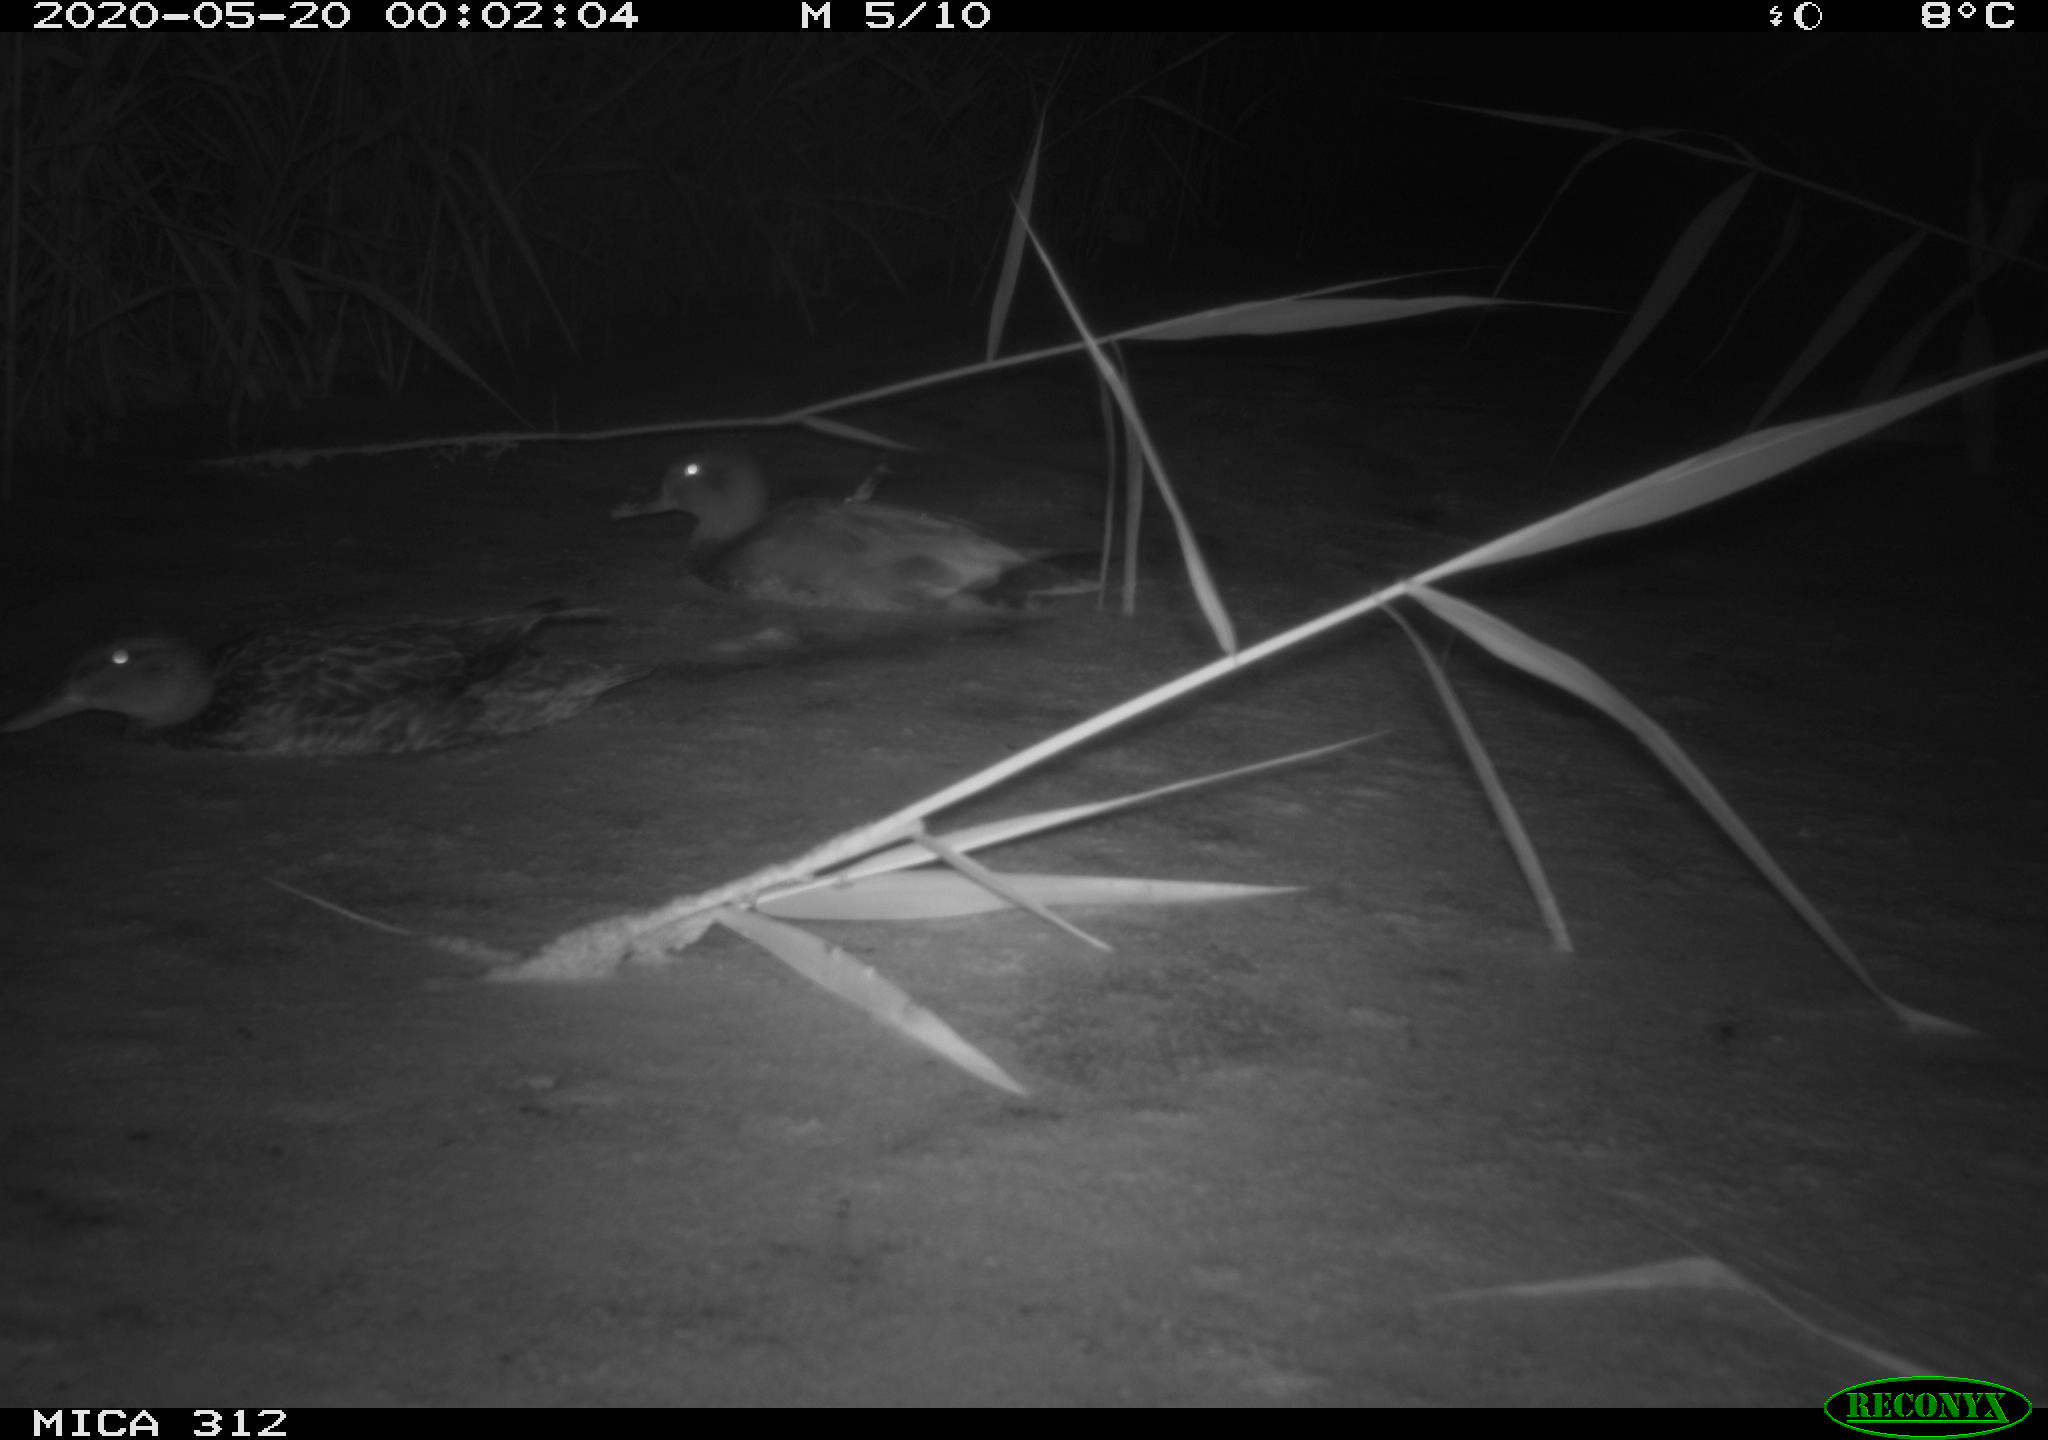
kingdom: Animalia
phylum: Chordata
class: Aves
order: Anseriformes
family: Anatidae
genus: Anas
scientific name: Anas platyrhynchos
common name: Mallard
